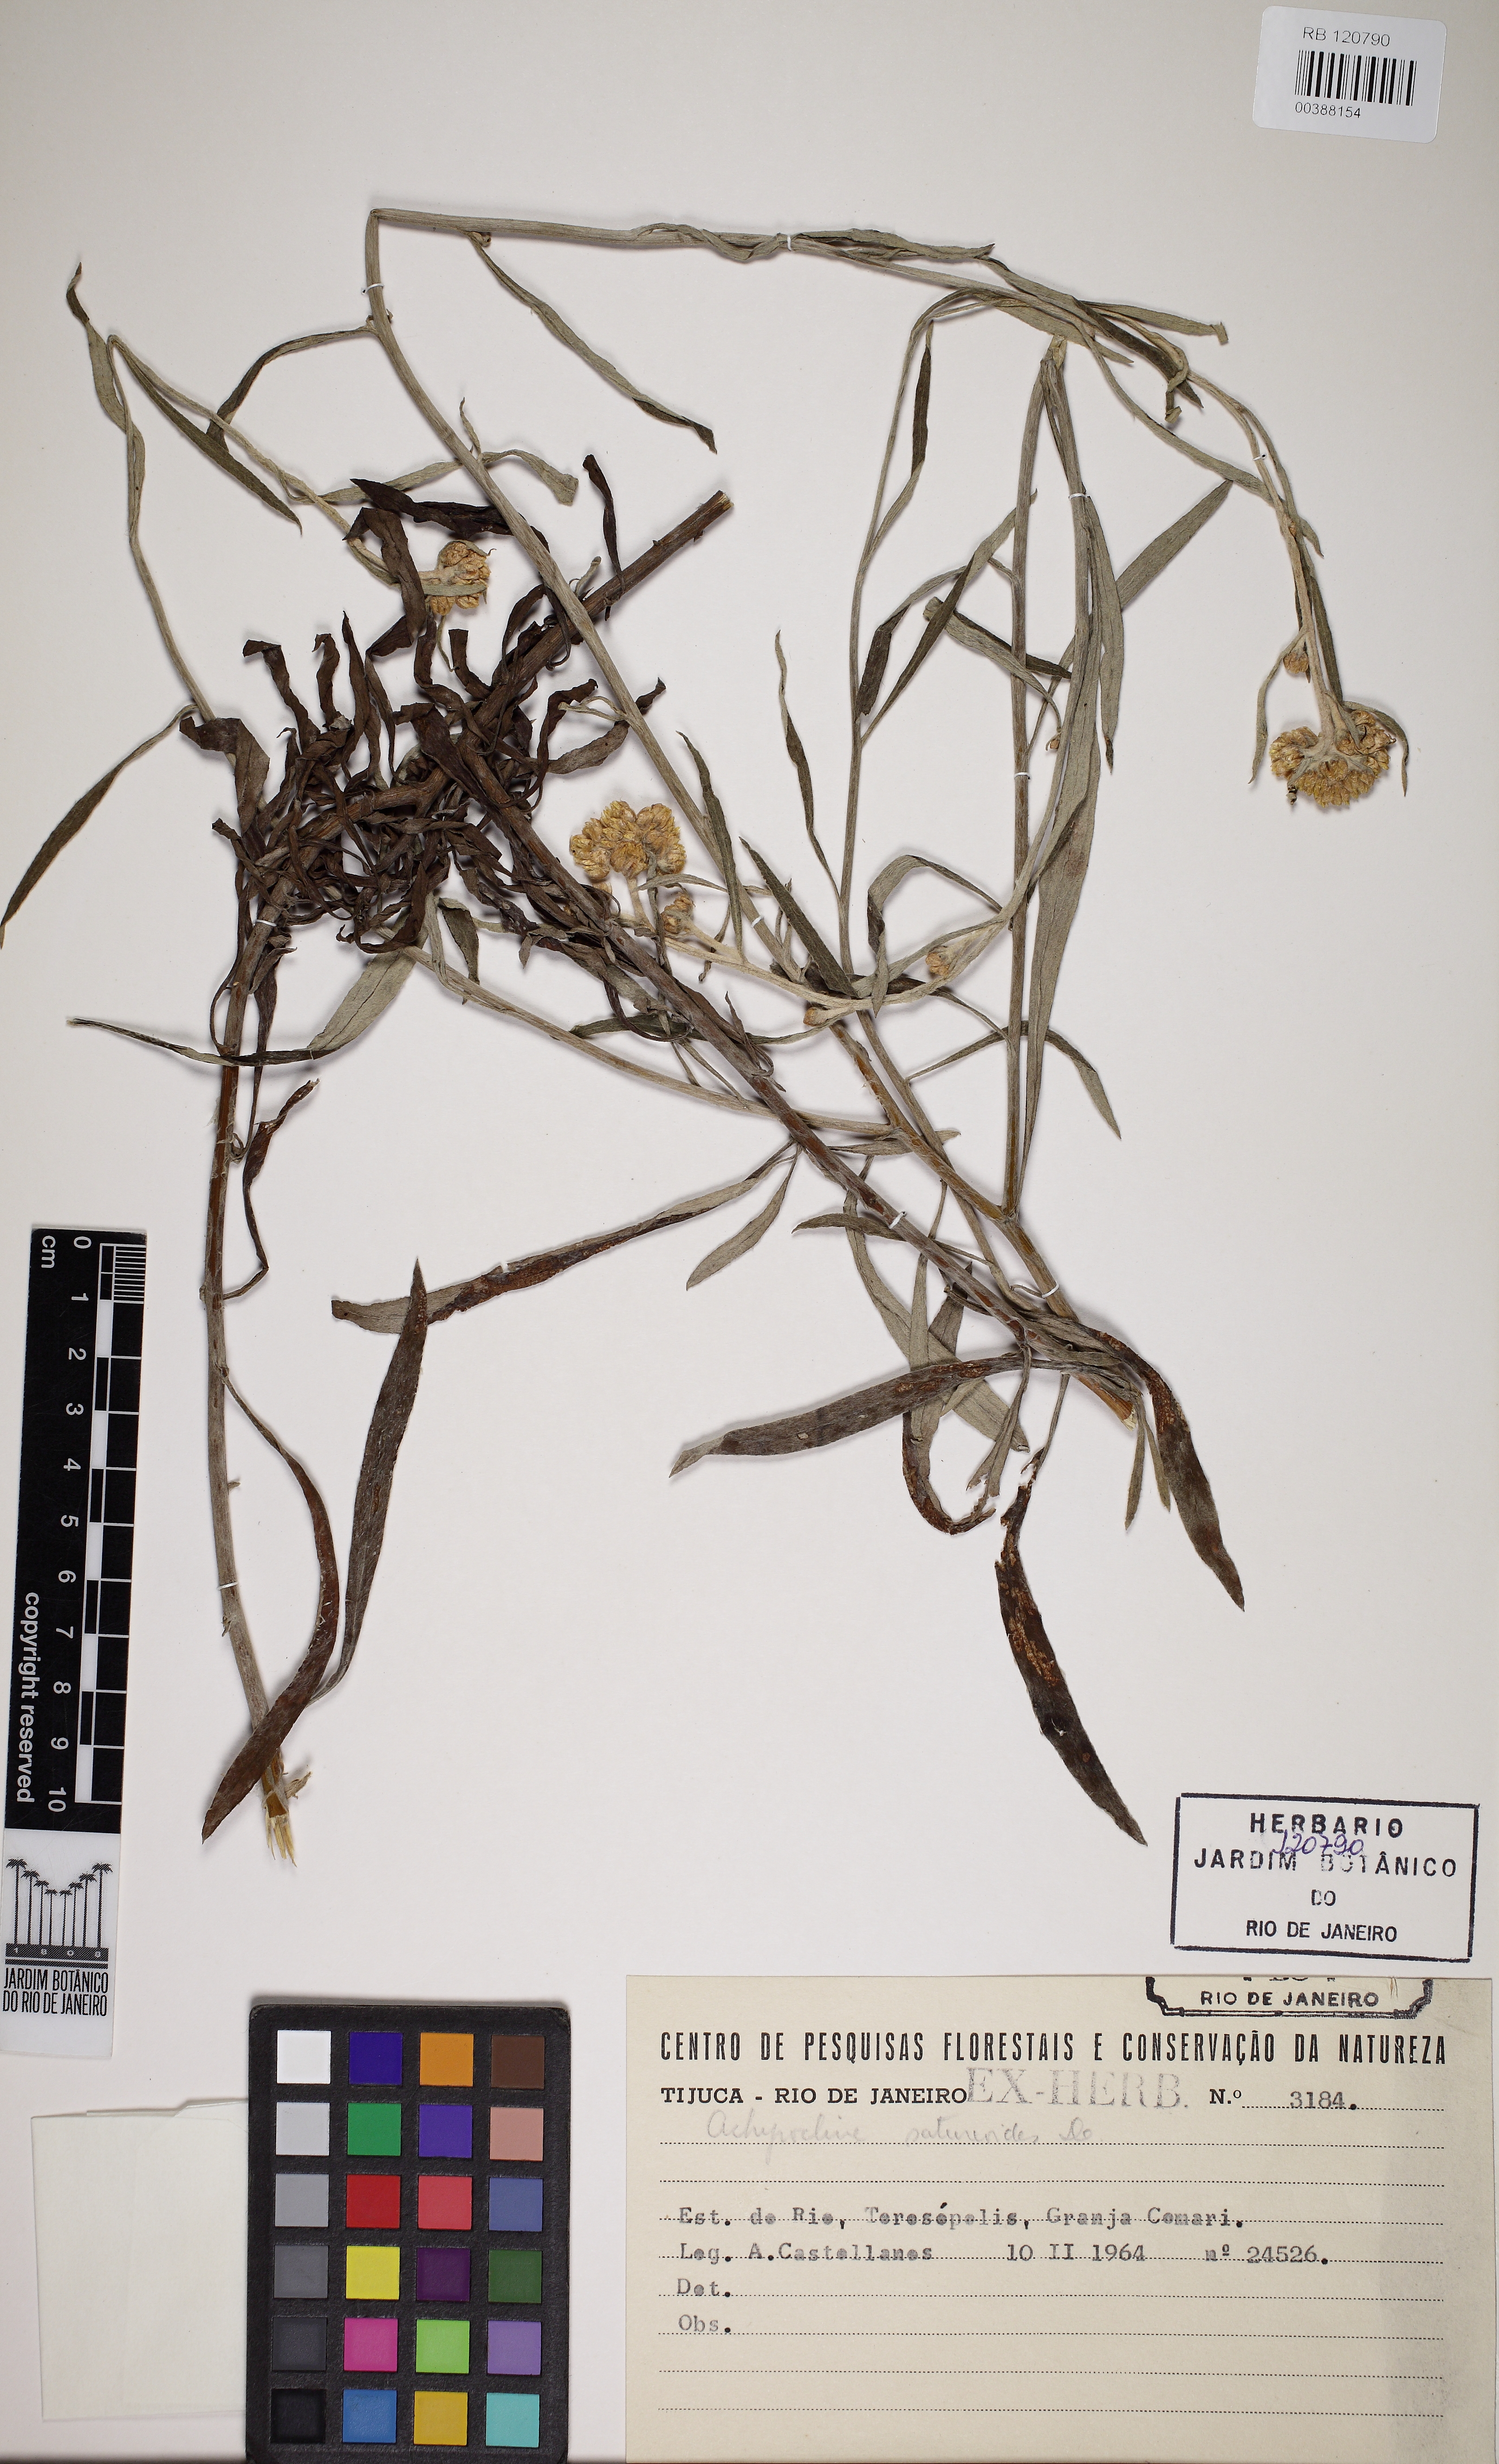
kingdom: Plantae
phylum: Tracheophyta
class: Magnoliopsida
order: Asterales
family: Asteraceae
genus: Achyrocline
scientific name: Achyrocline satureioides
